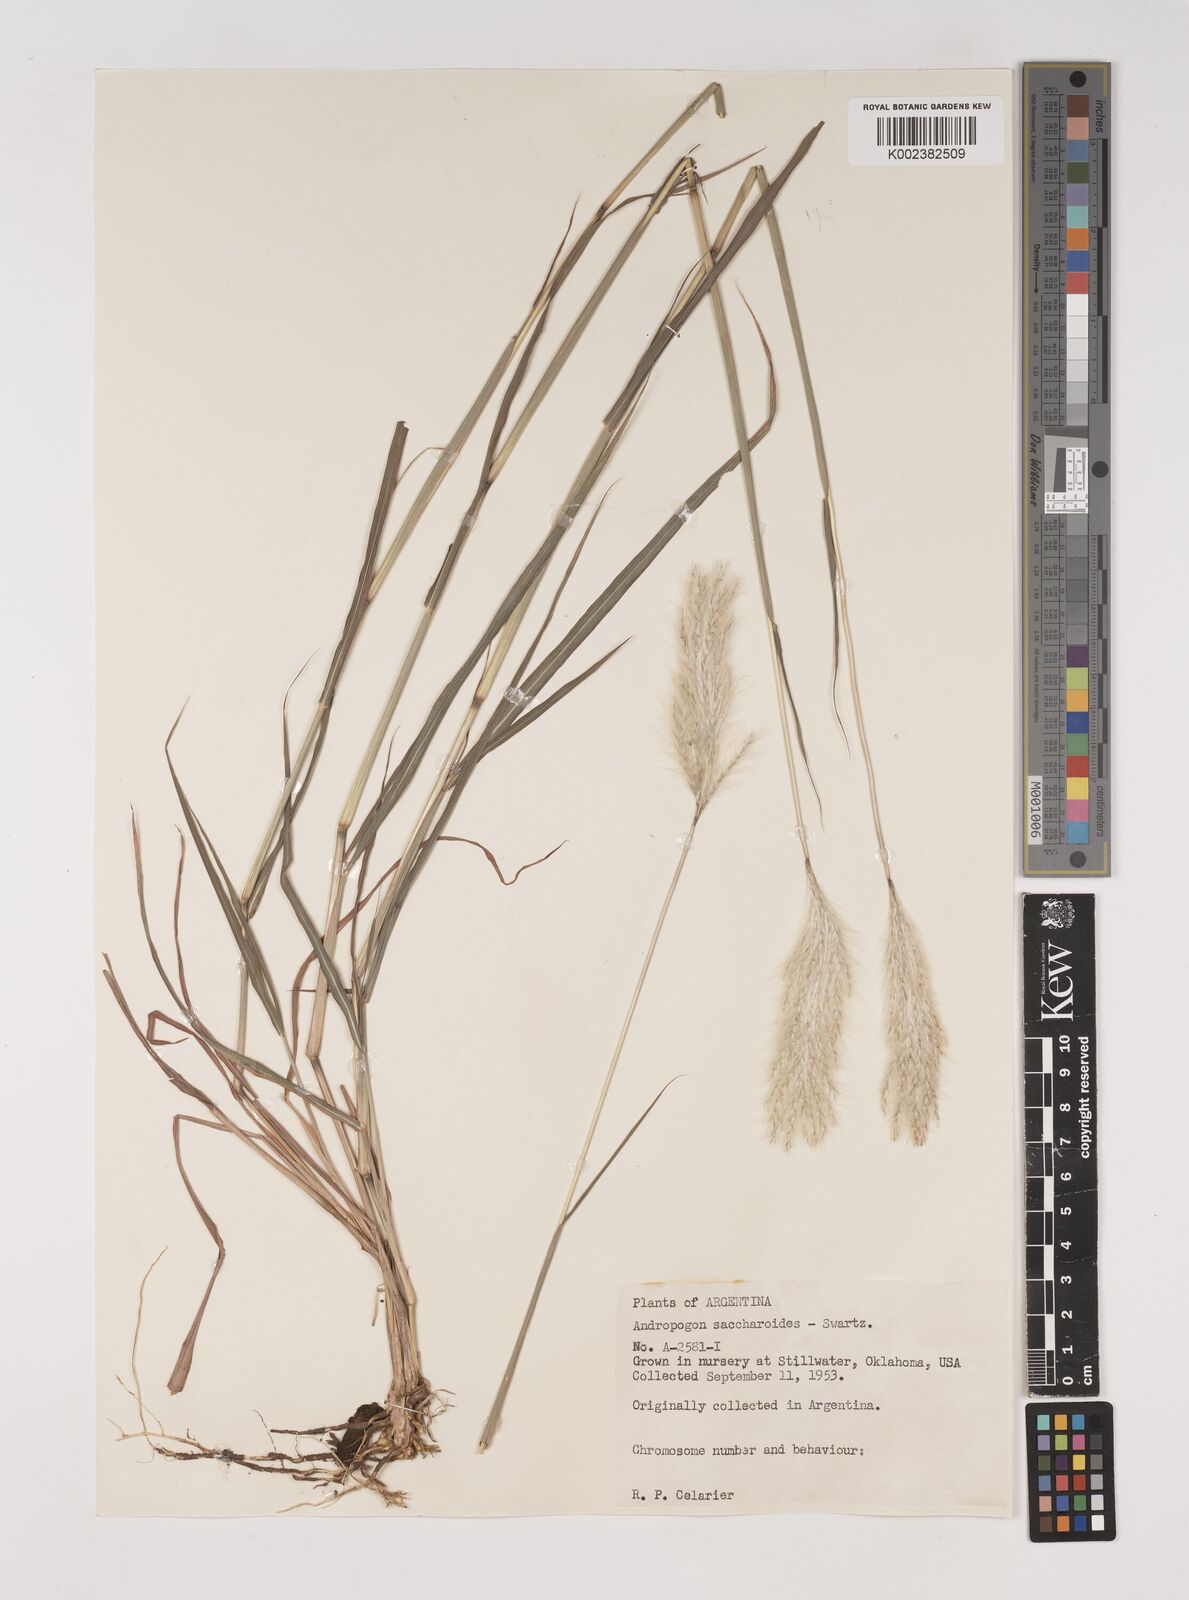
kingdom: Plantae
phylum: Tracheophyta
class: Liliopsida
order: Poales
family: Poaceae
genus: Bothriochloa
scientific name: Bothriochloa laguroides
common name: Silver bluestem
